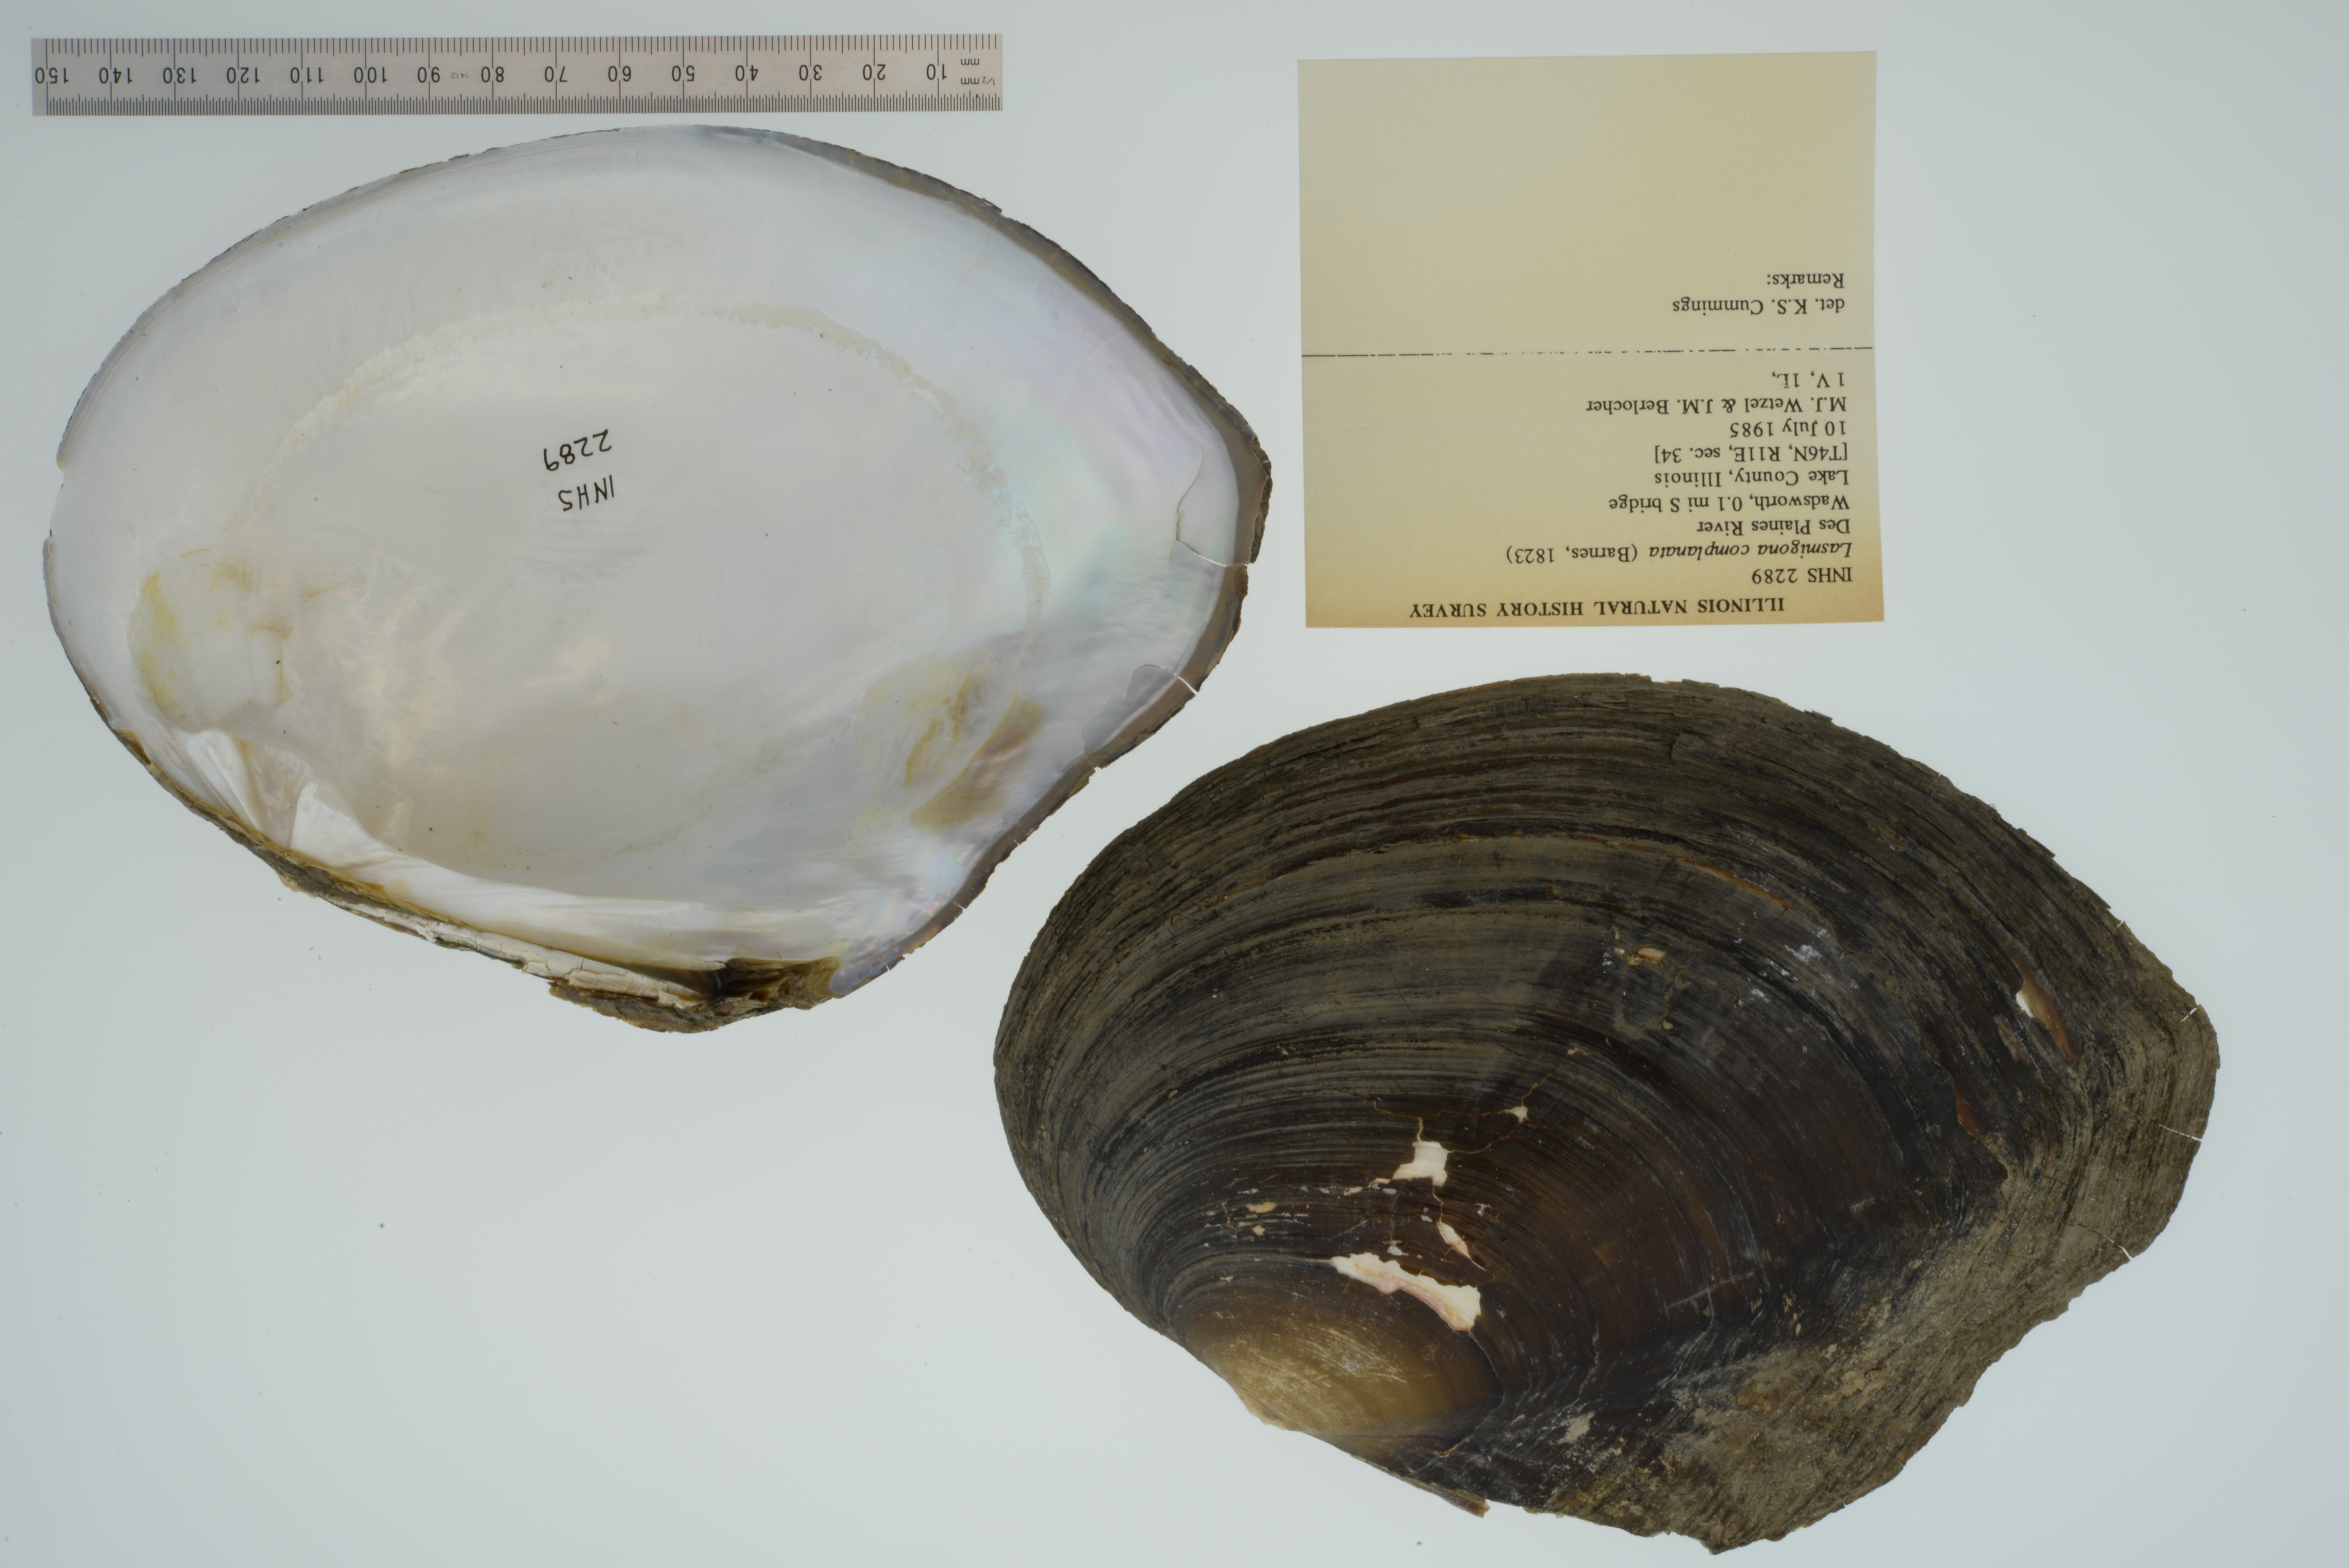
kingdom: Animalia
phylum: Mollusca
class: Bivalvia
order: Unionida
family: Unionidae
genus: Lasmigona
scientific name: Lasmigona complanata
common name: White heelsplitter
